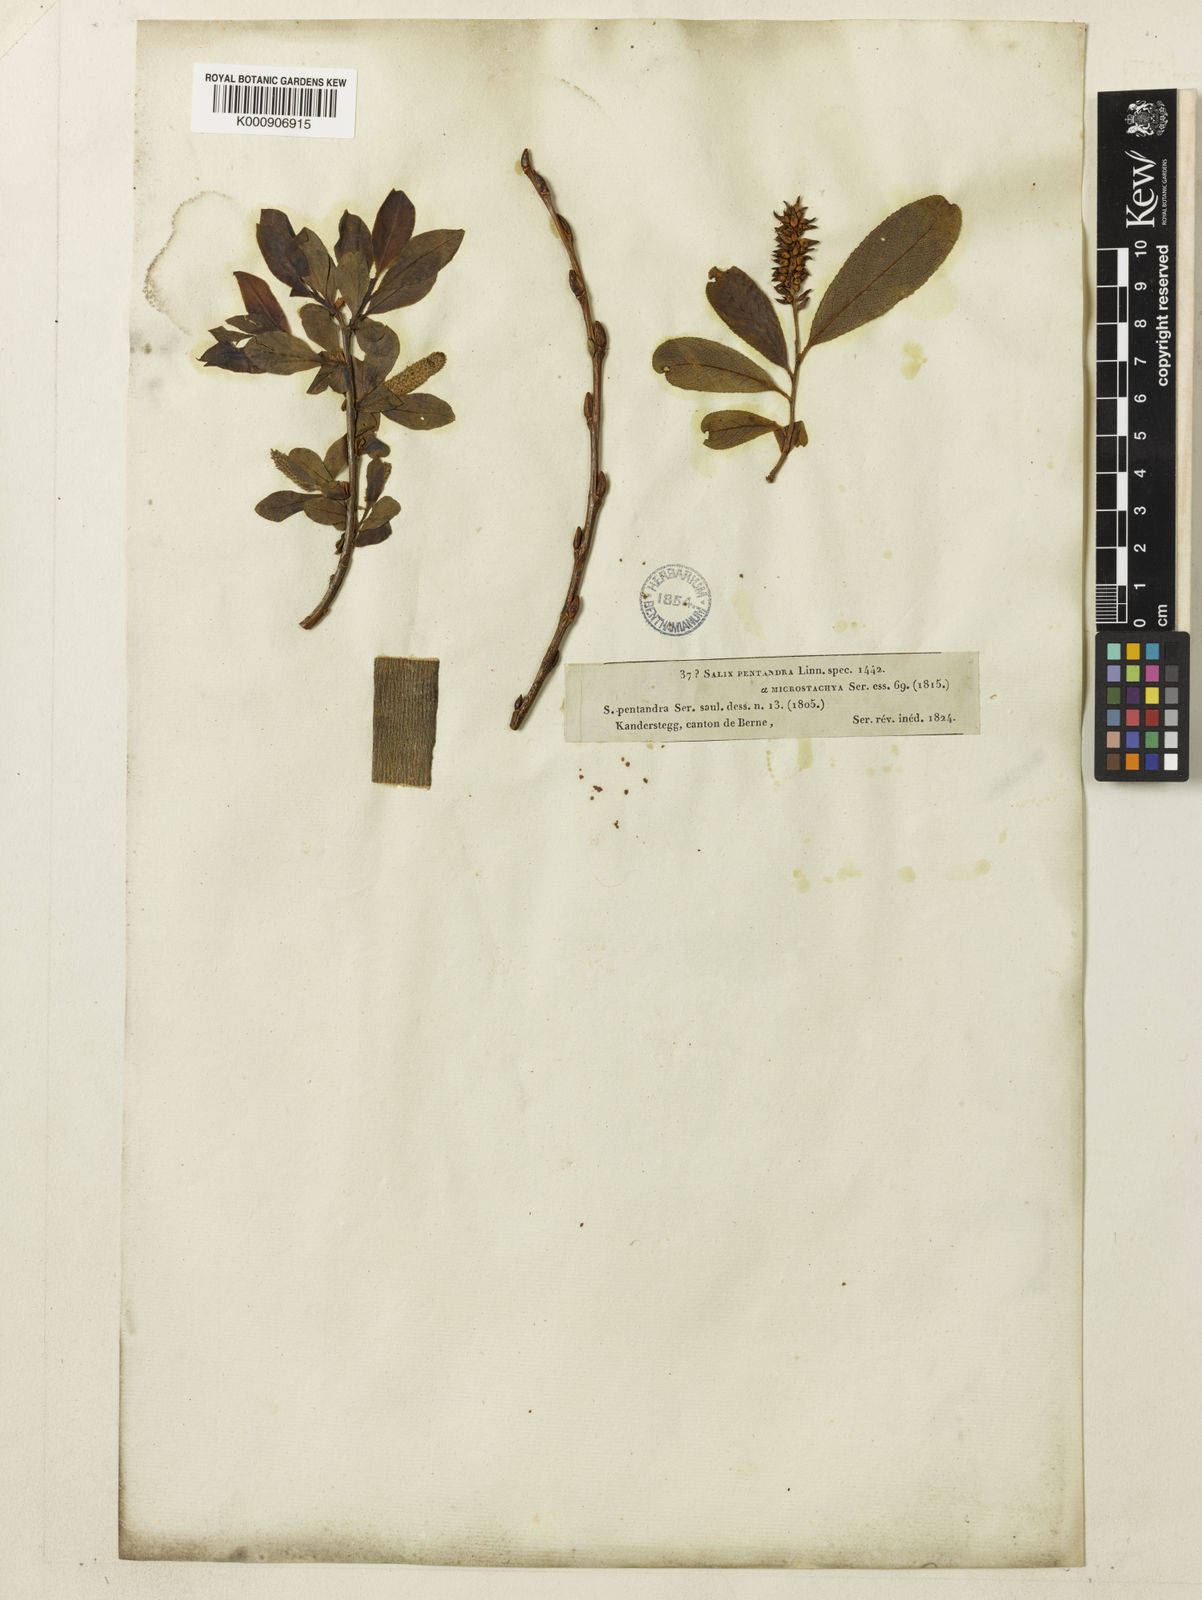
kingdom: Plantae
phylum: Tracheophyta
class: Magnoliopsida
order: Malpighiales
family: Salicaceae
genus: Salix
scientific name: Salix pentandra
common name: Bay willow
